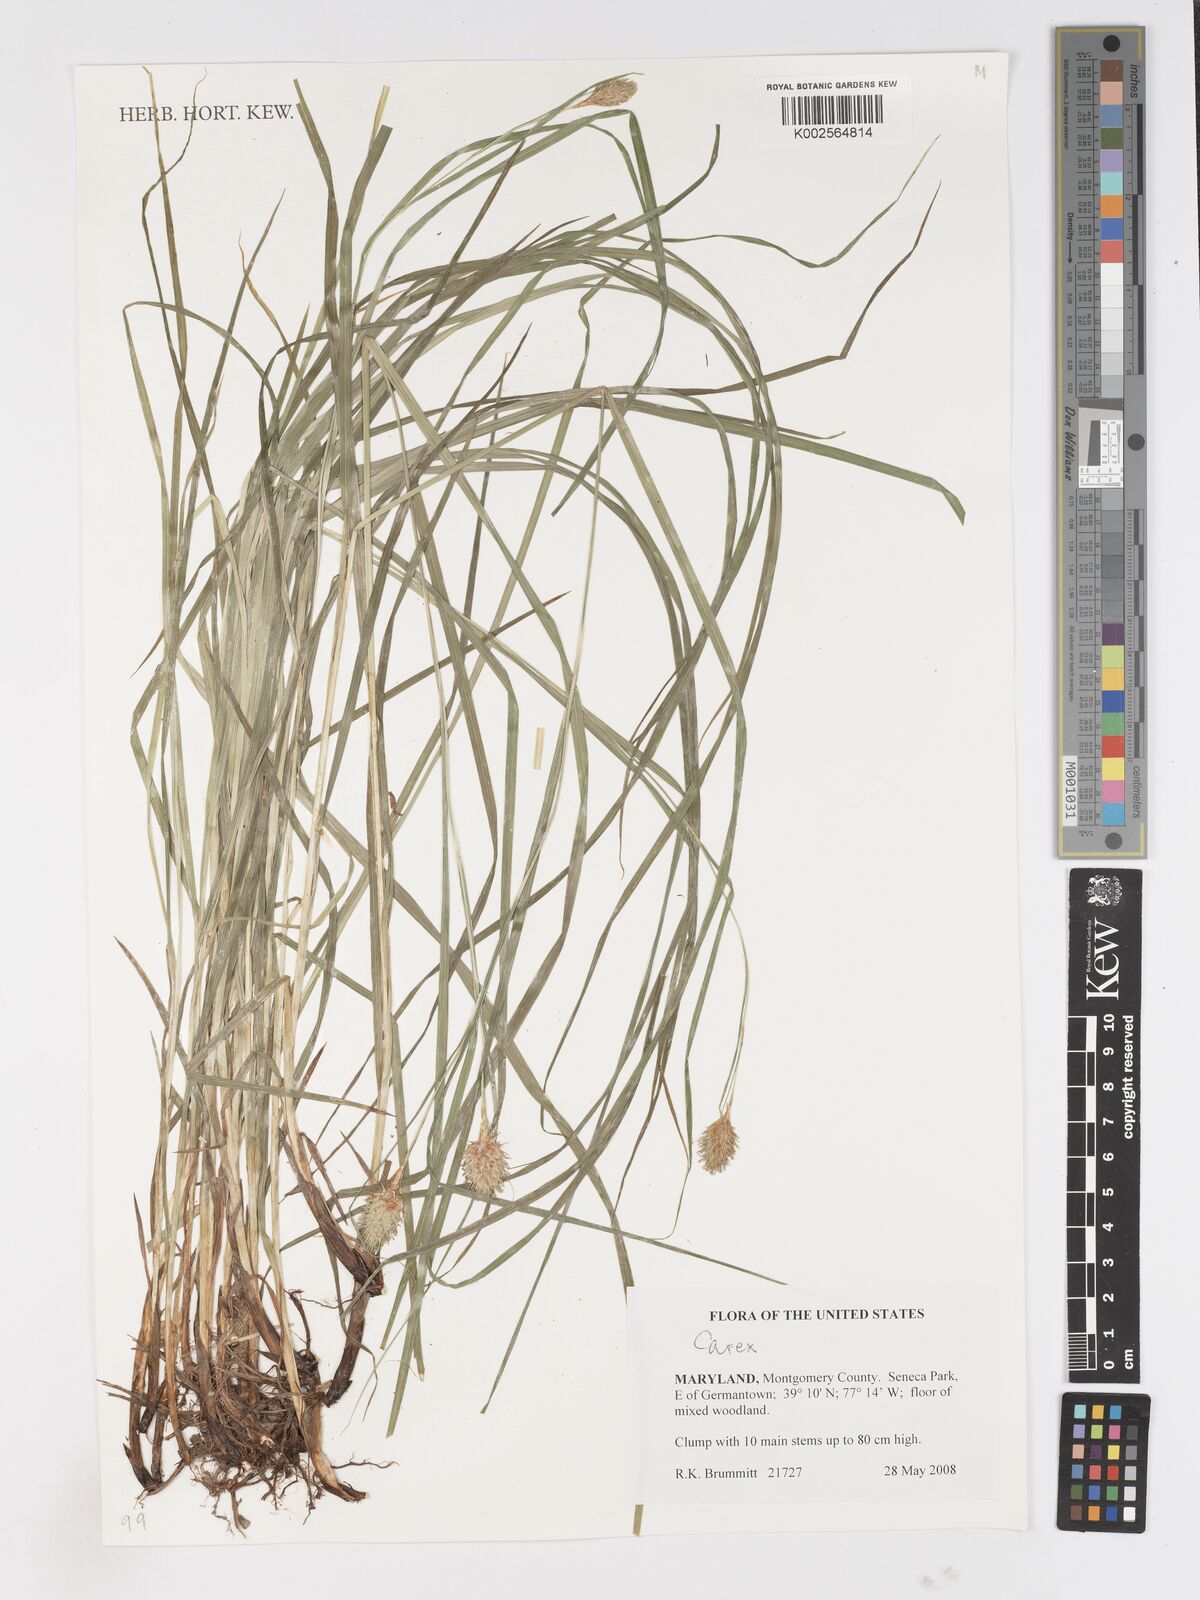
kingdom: Plantae
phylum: Tracheophyta
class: Liliopsida
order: Poales
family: Cyperaceae
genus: Carex
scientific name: Carex
